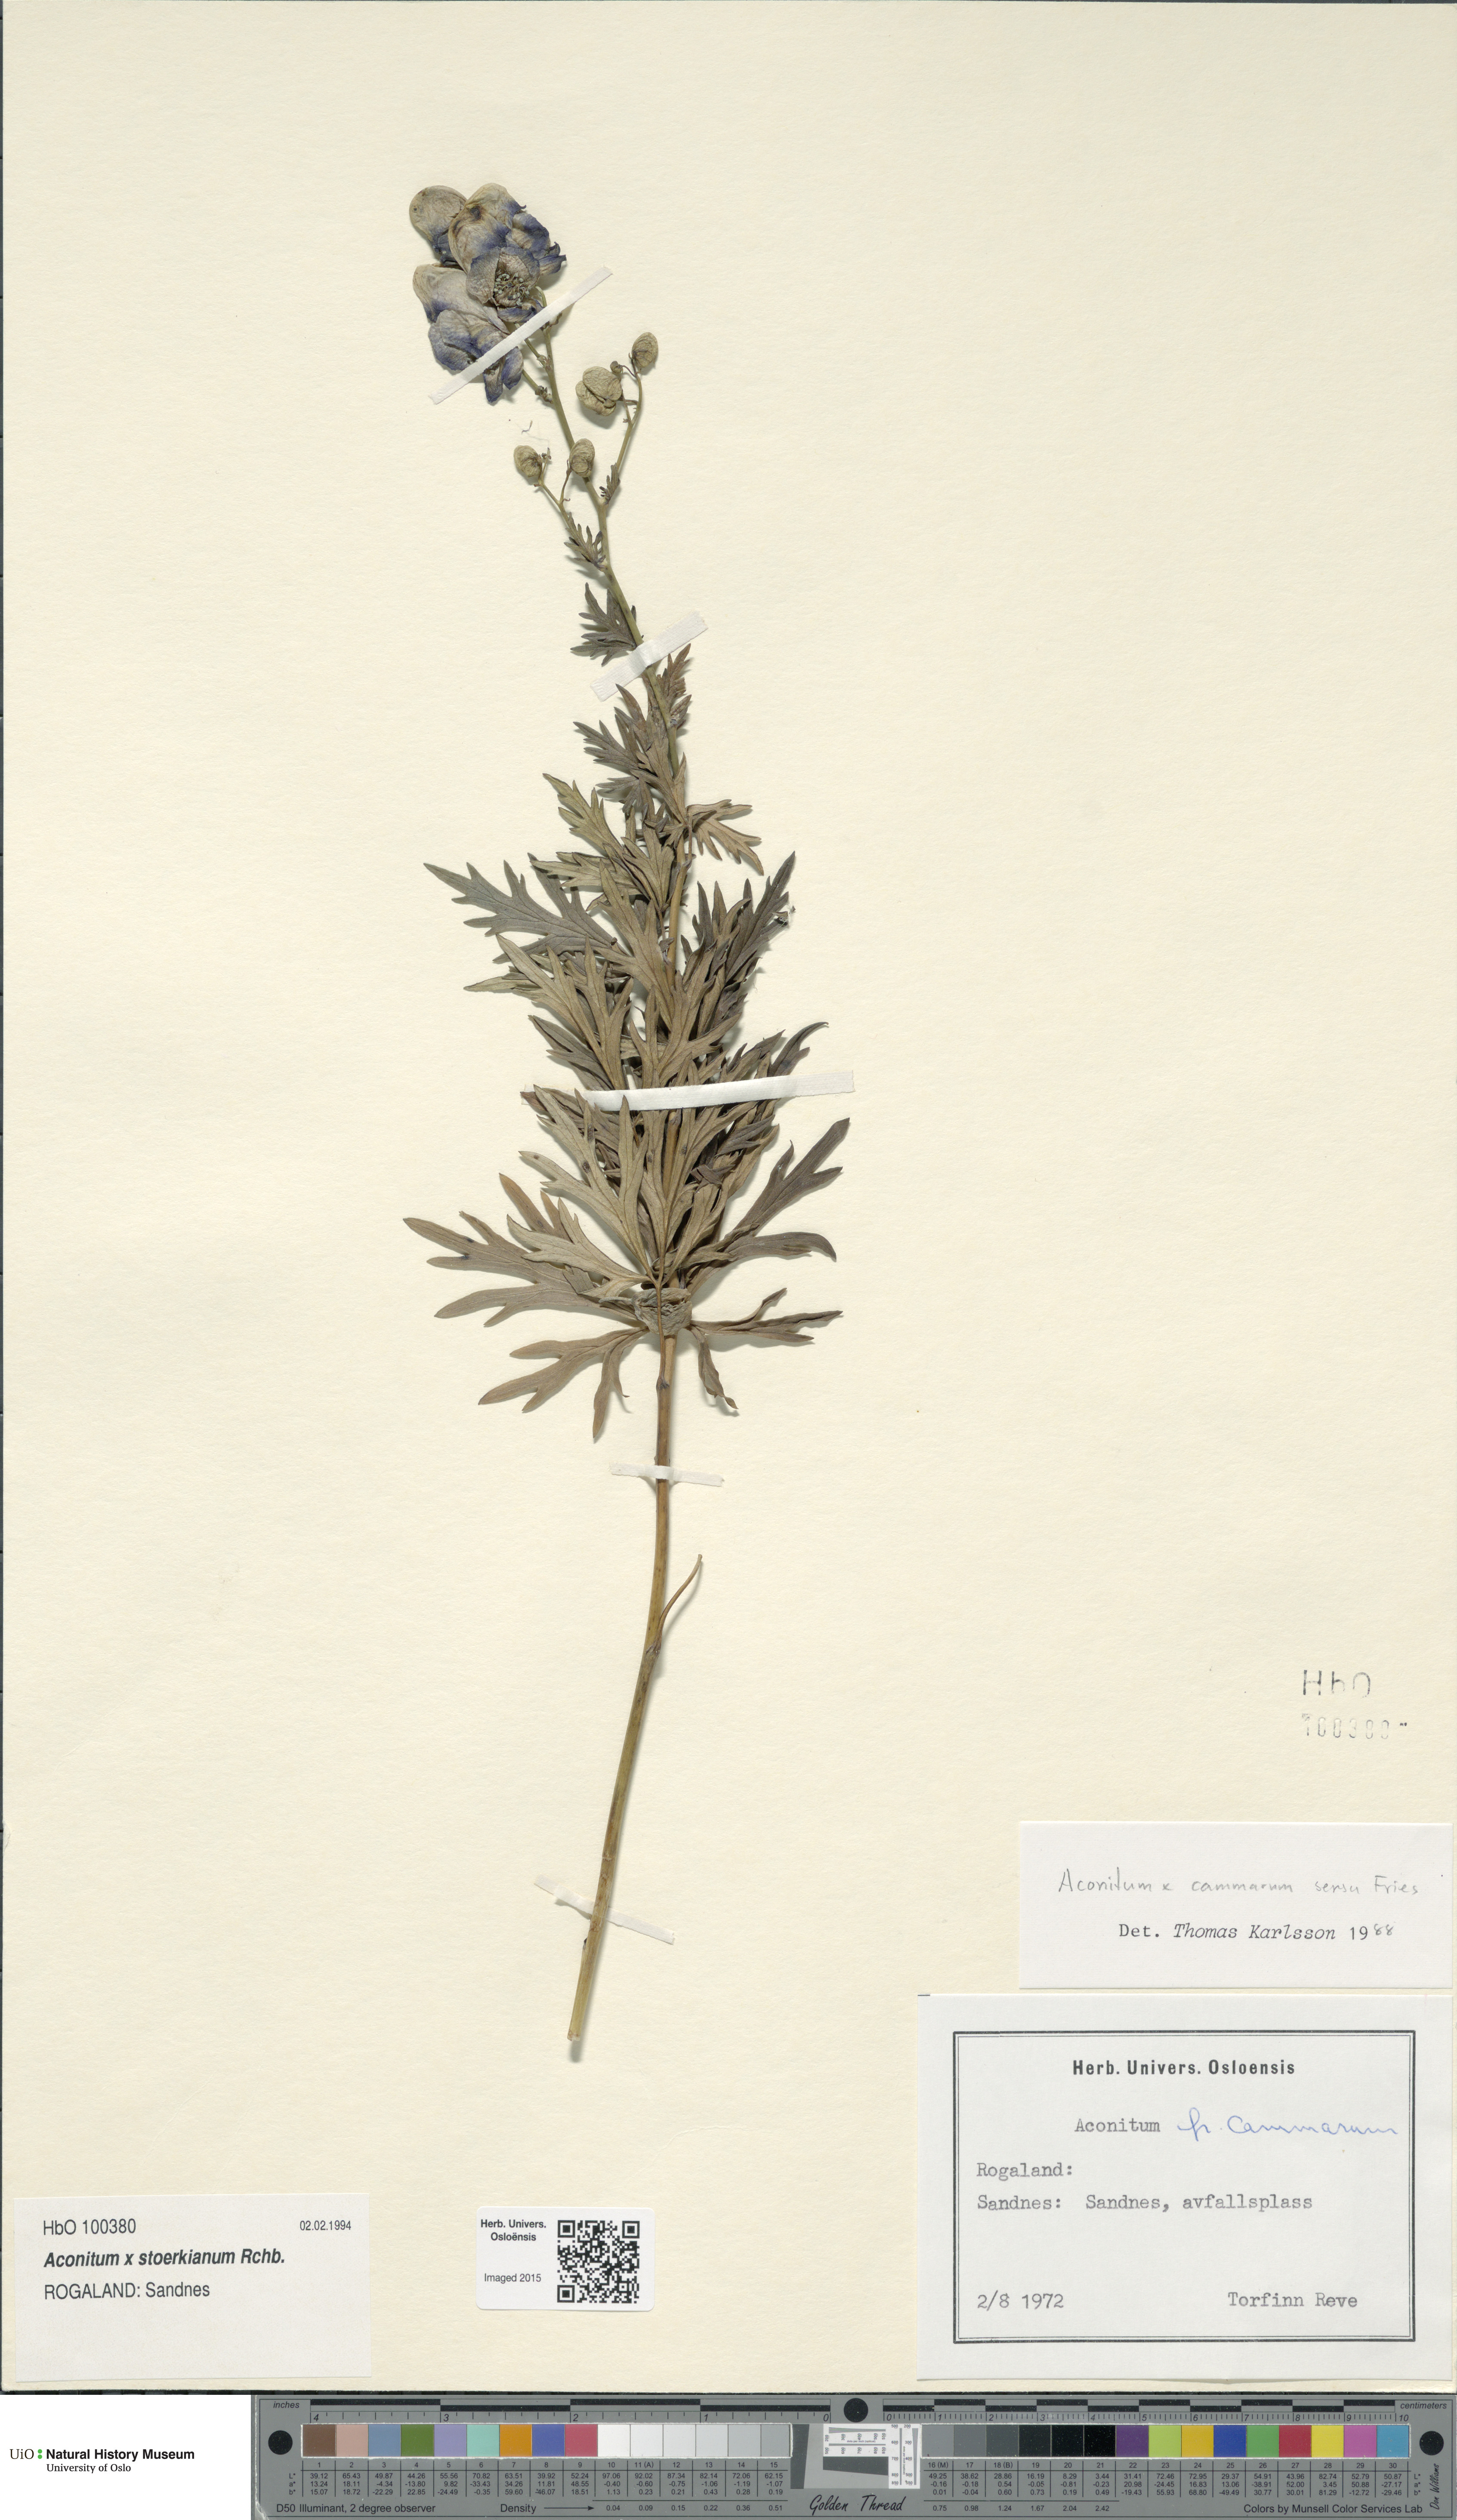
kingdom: Plantae
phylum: Tracheophyta
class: Magnoliopsida
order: Ranunculales
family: Ranunculaceae
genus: Aconitum
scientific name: Aconitum cammarum
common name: Hybrid monk's-hood
